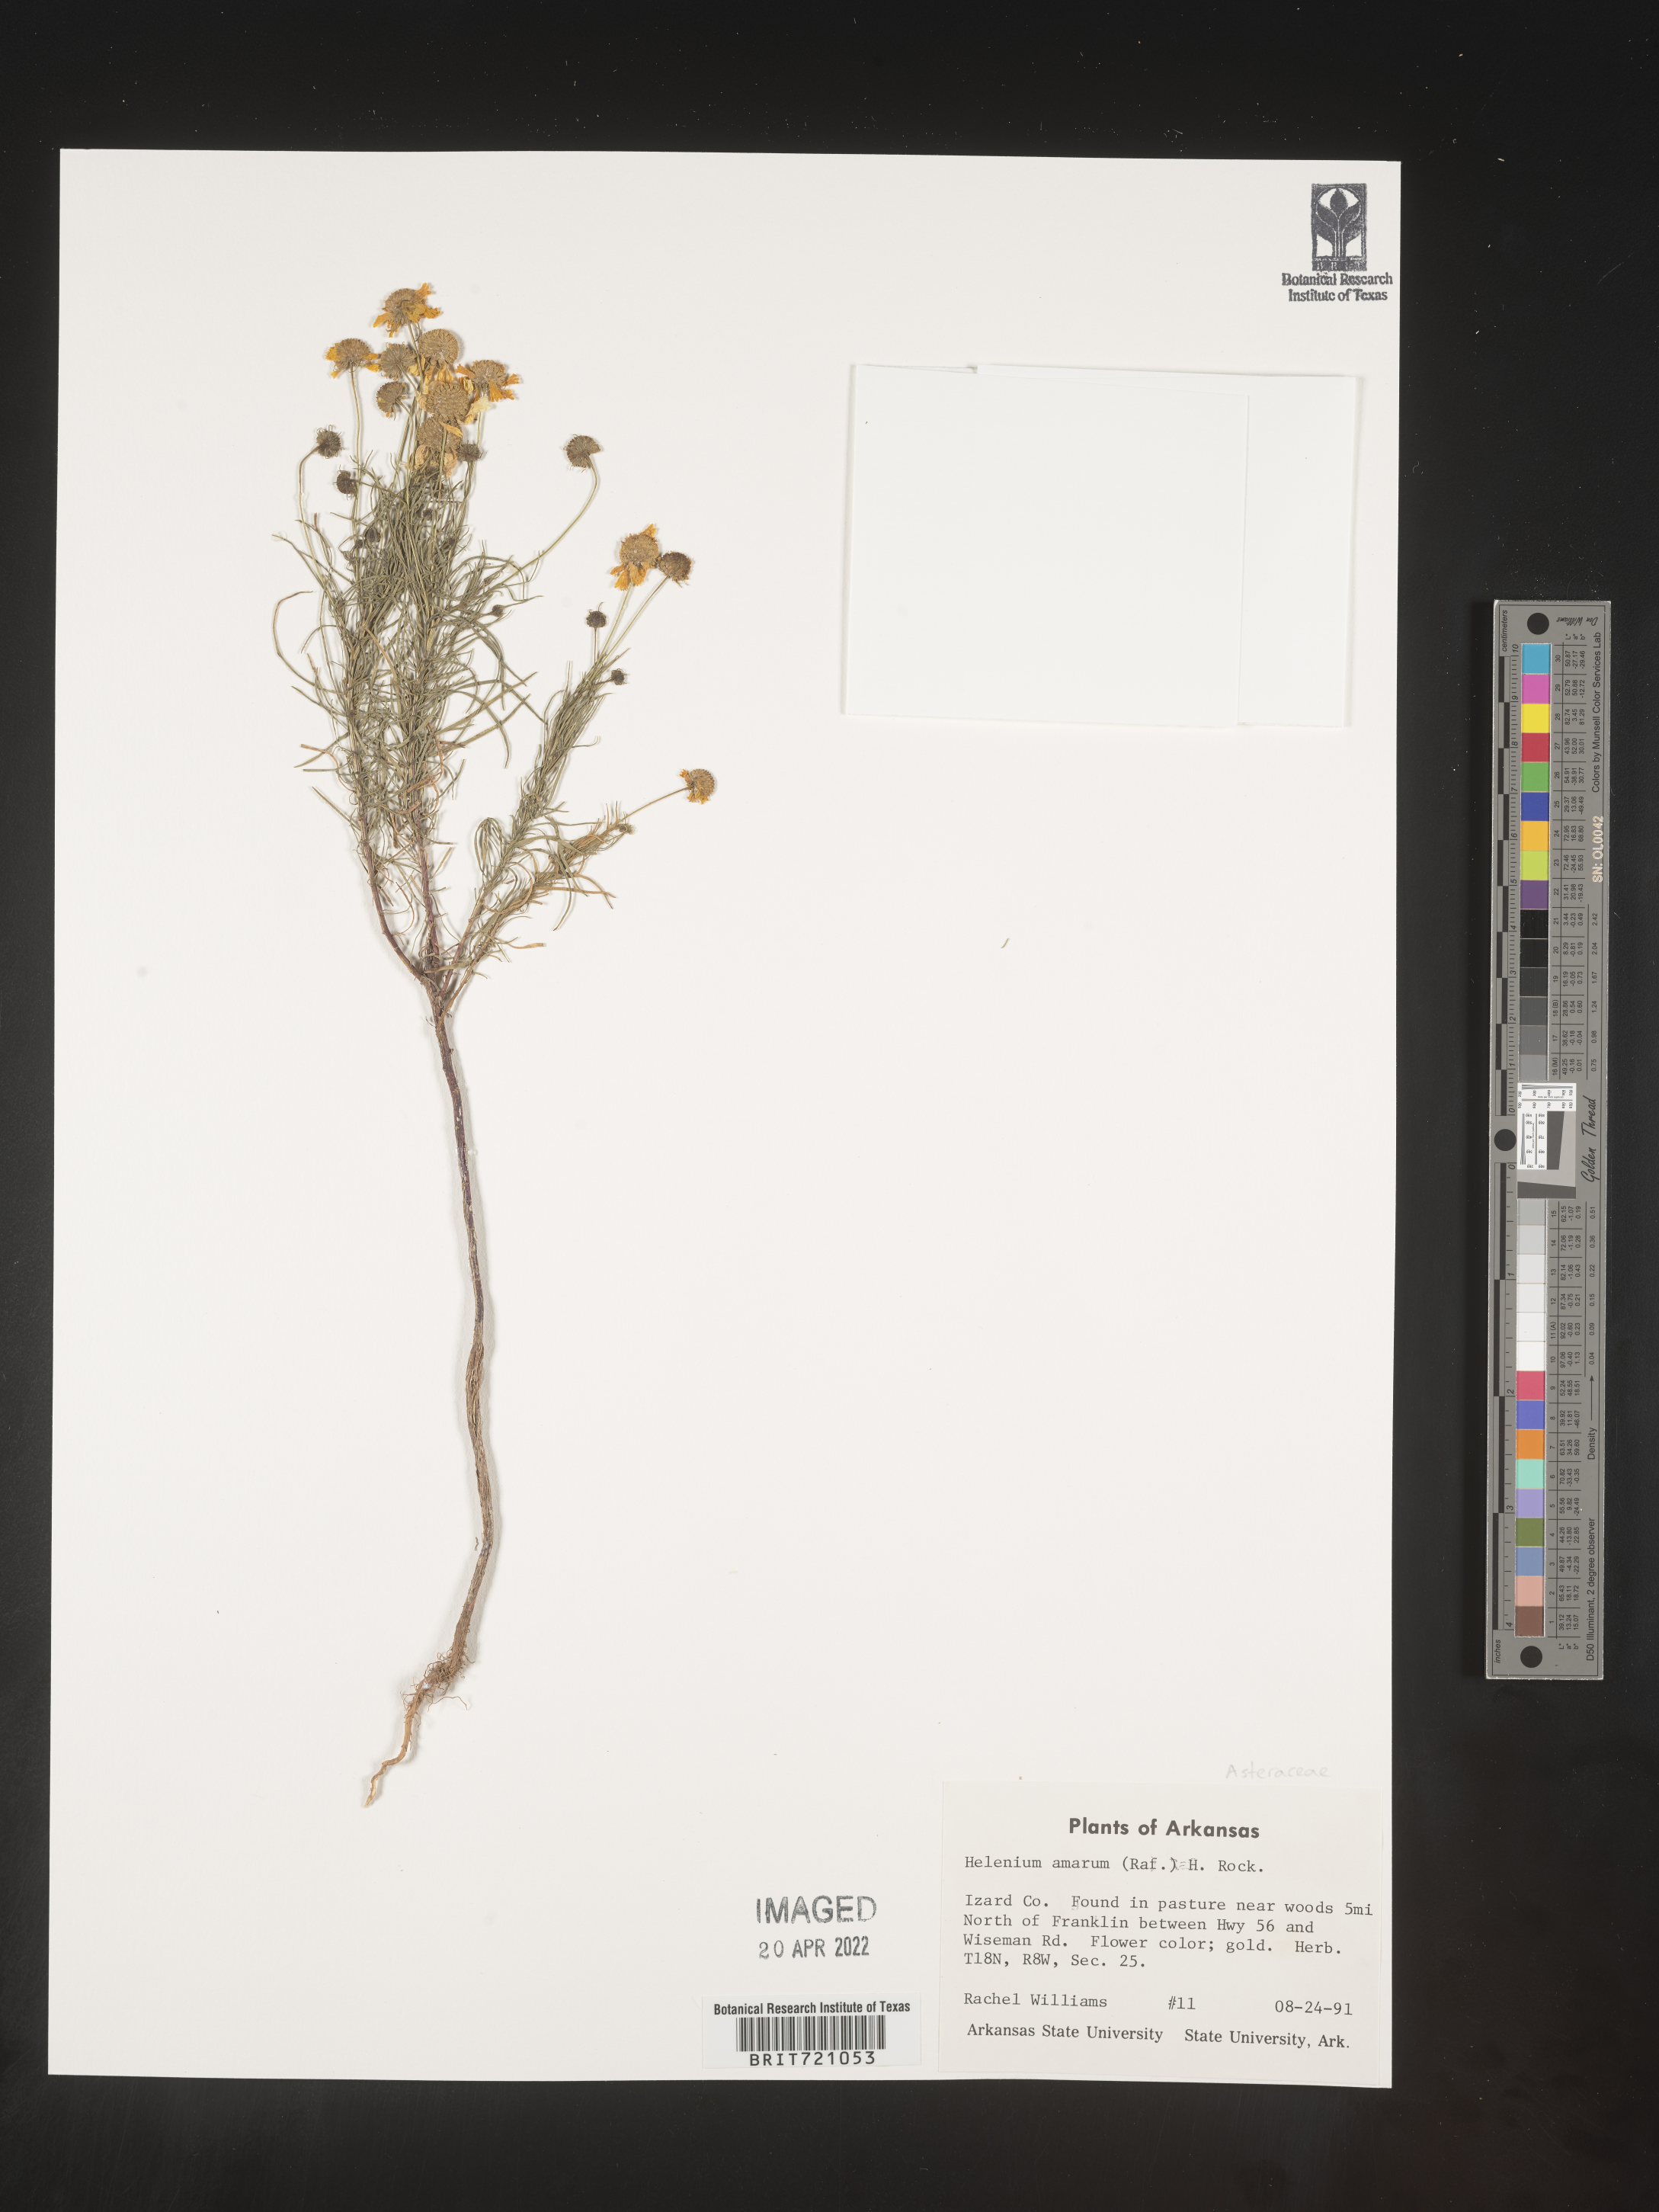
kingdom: Plantae
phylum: Tracheophyta
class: Magnoliopsida
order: Asterales
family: Asteraceae
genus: Helenium
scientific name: Helenium amarum
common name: Bitter sneezeweed
